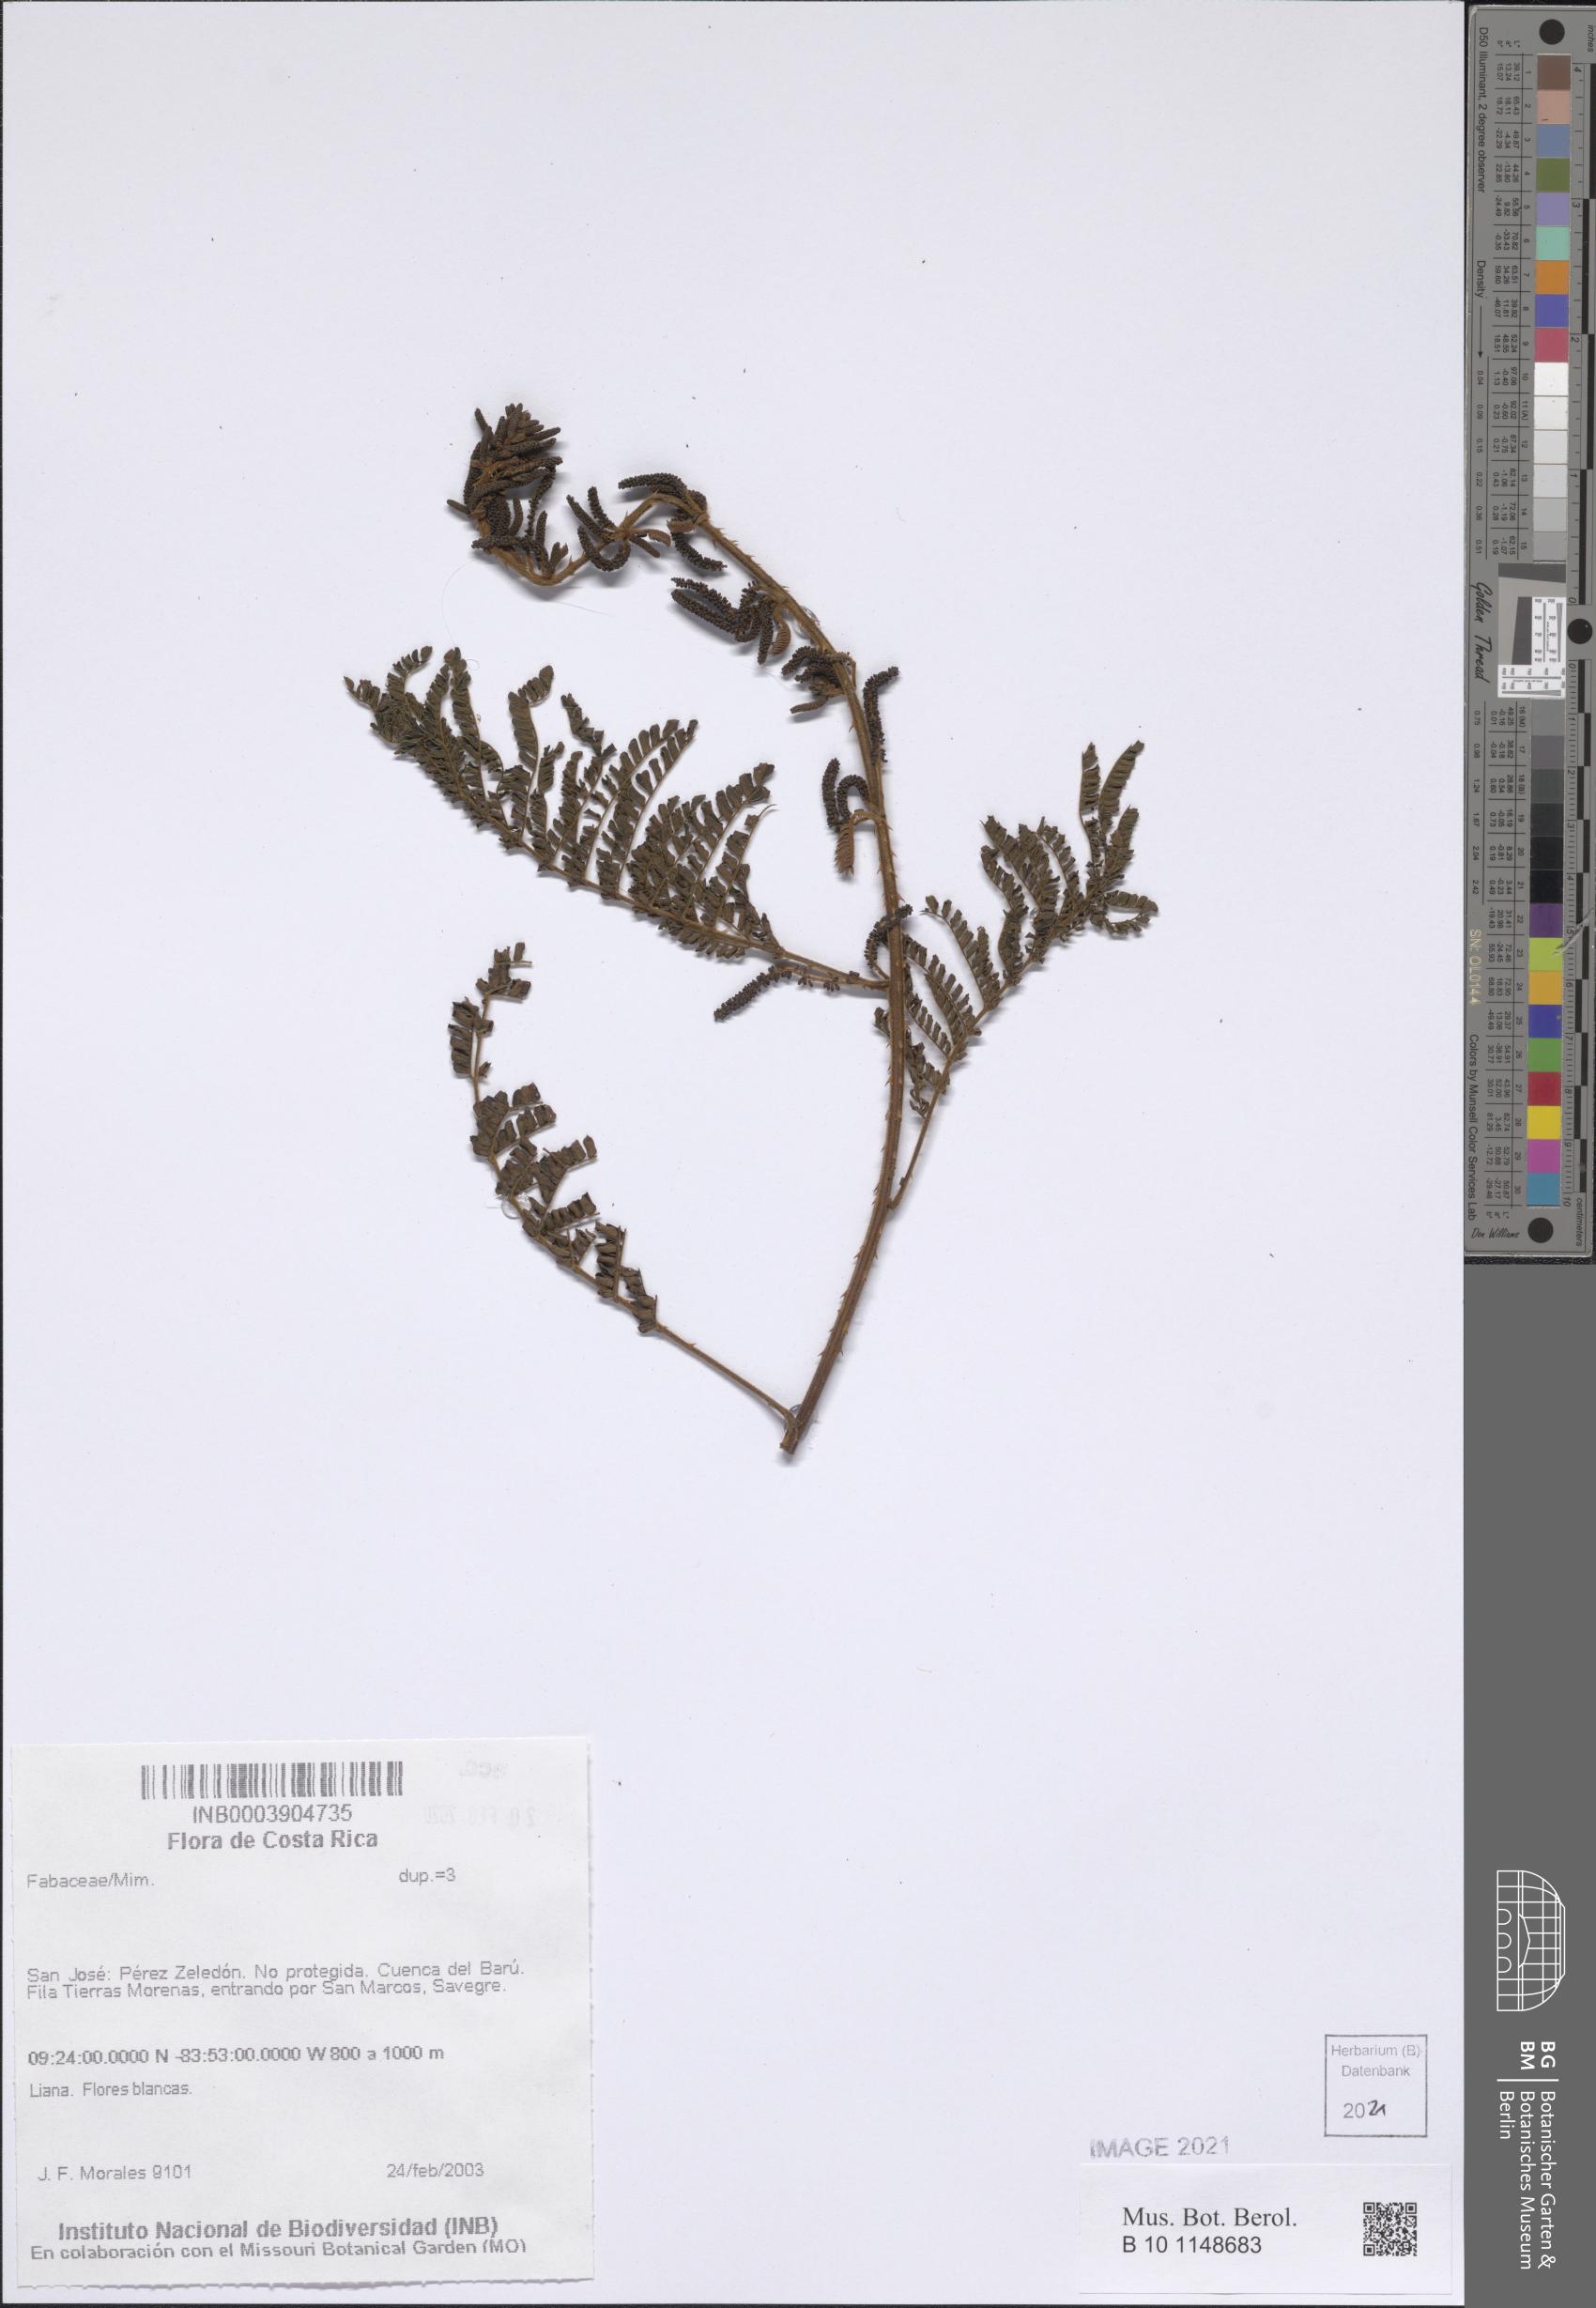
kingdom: Plantae
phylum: Tracheophyta
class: Magnoliopsida
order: Fabales
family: Fabaceae
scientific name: Fabaceae
